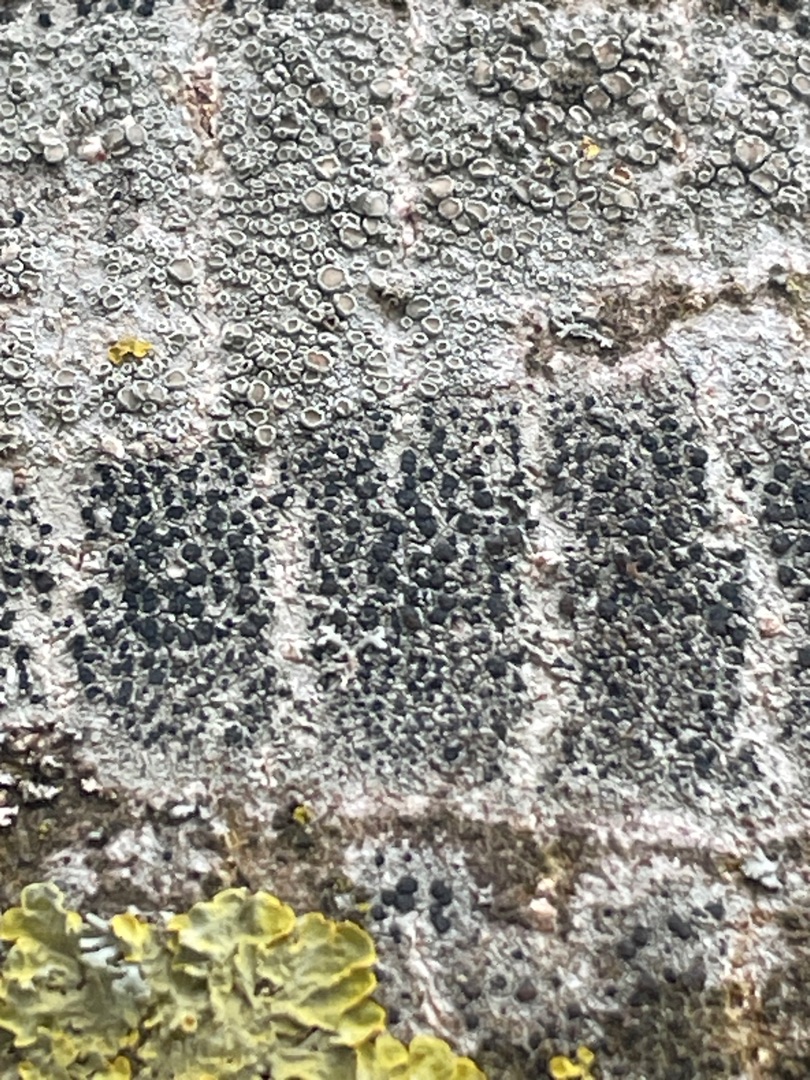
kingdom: Fungi
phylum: Ascomycota
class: Lecanoromycetes
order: Lecanorales
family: Lecanoraceae
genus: Lecidella
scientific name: Lecidella elaeochroma
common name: Grågrøn skivelav
